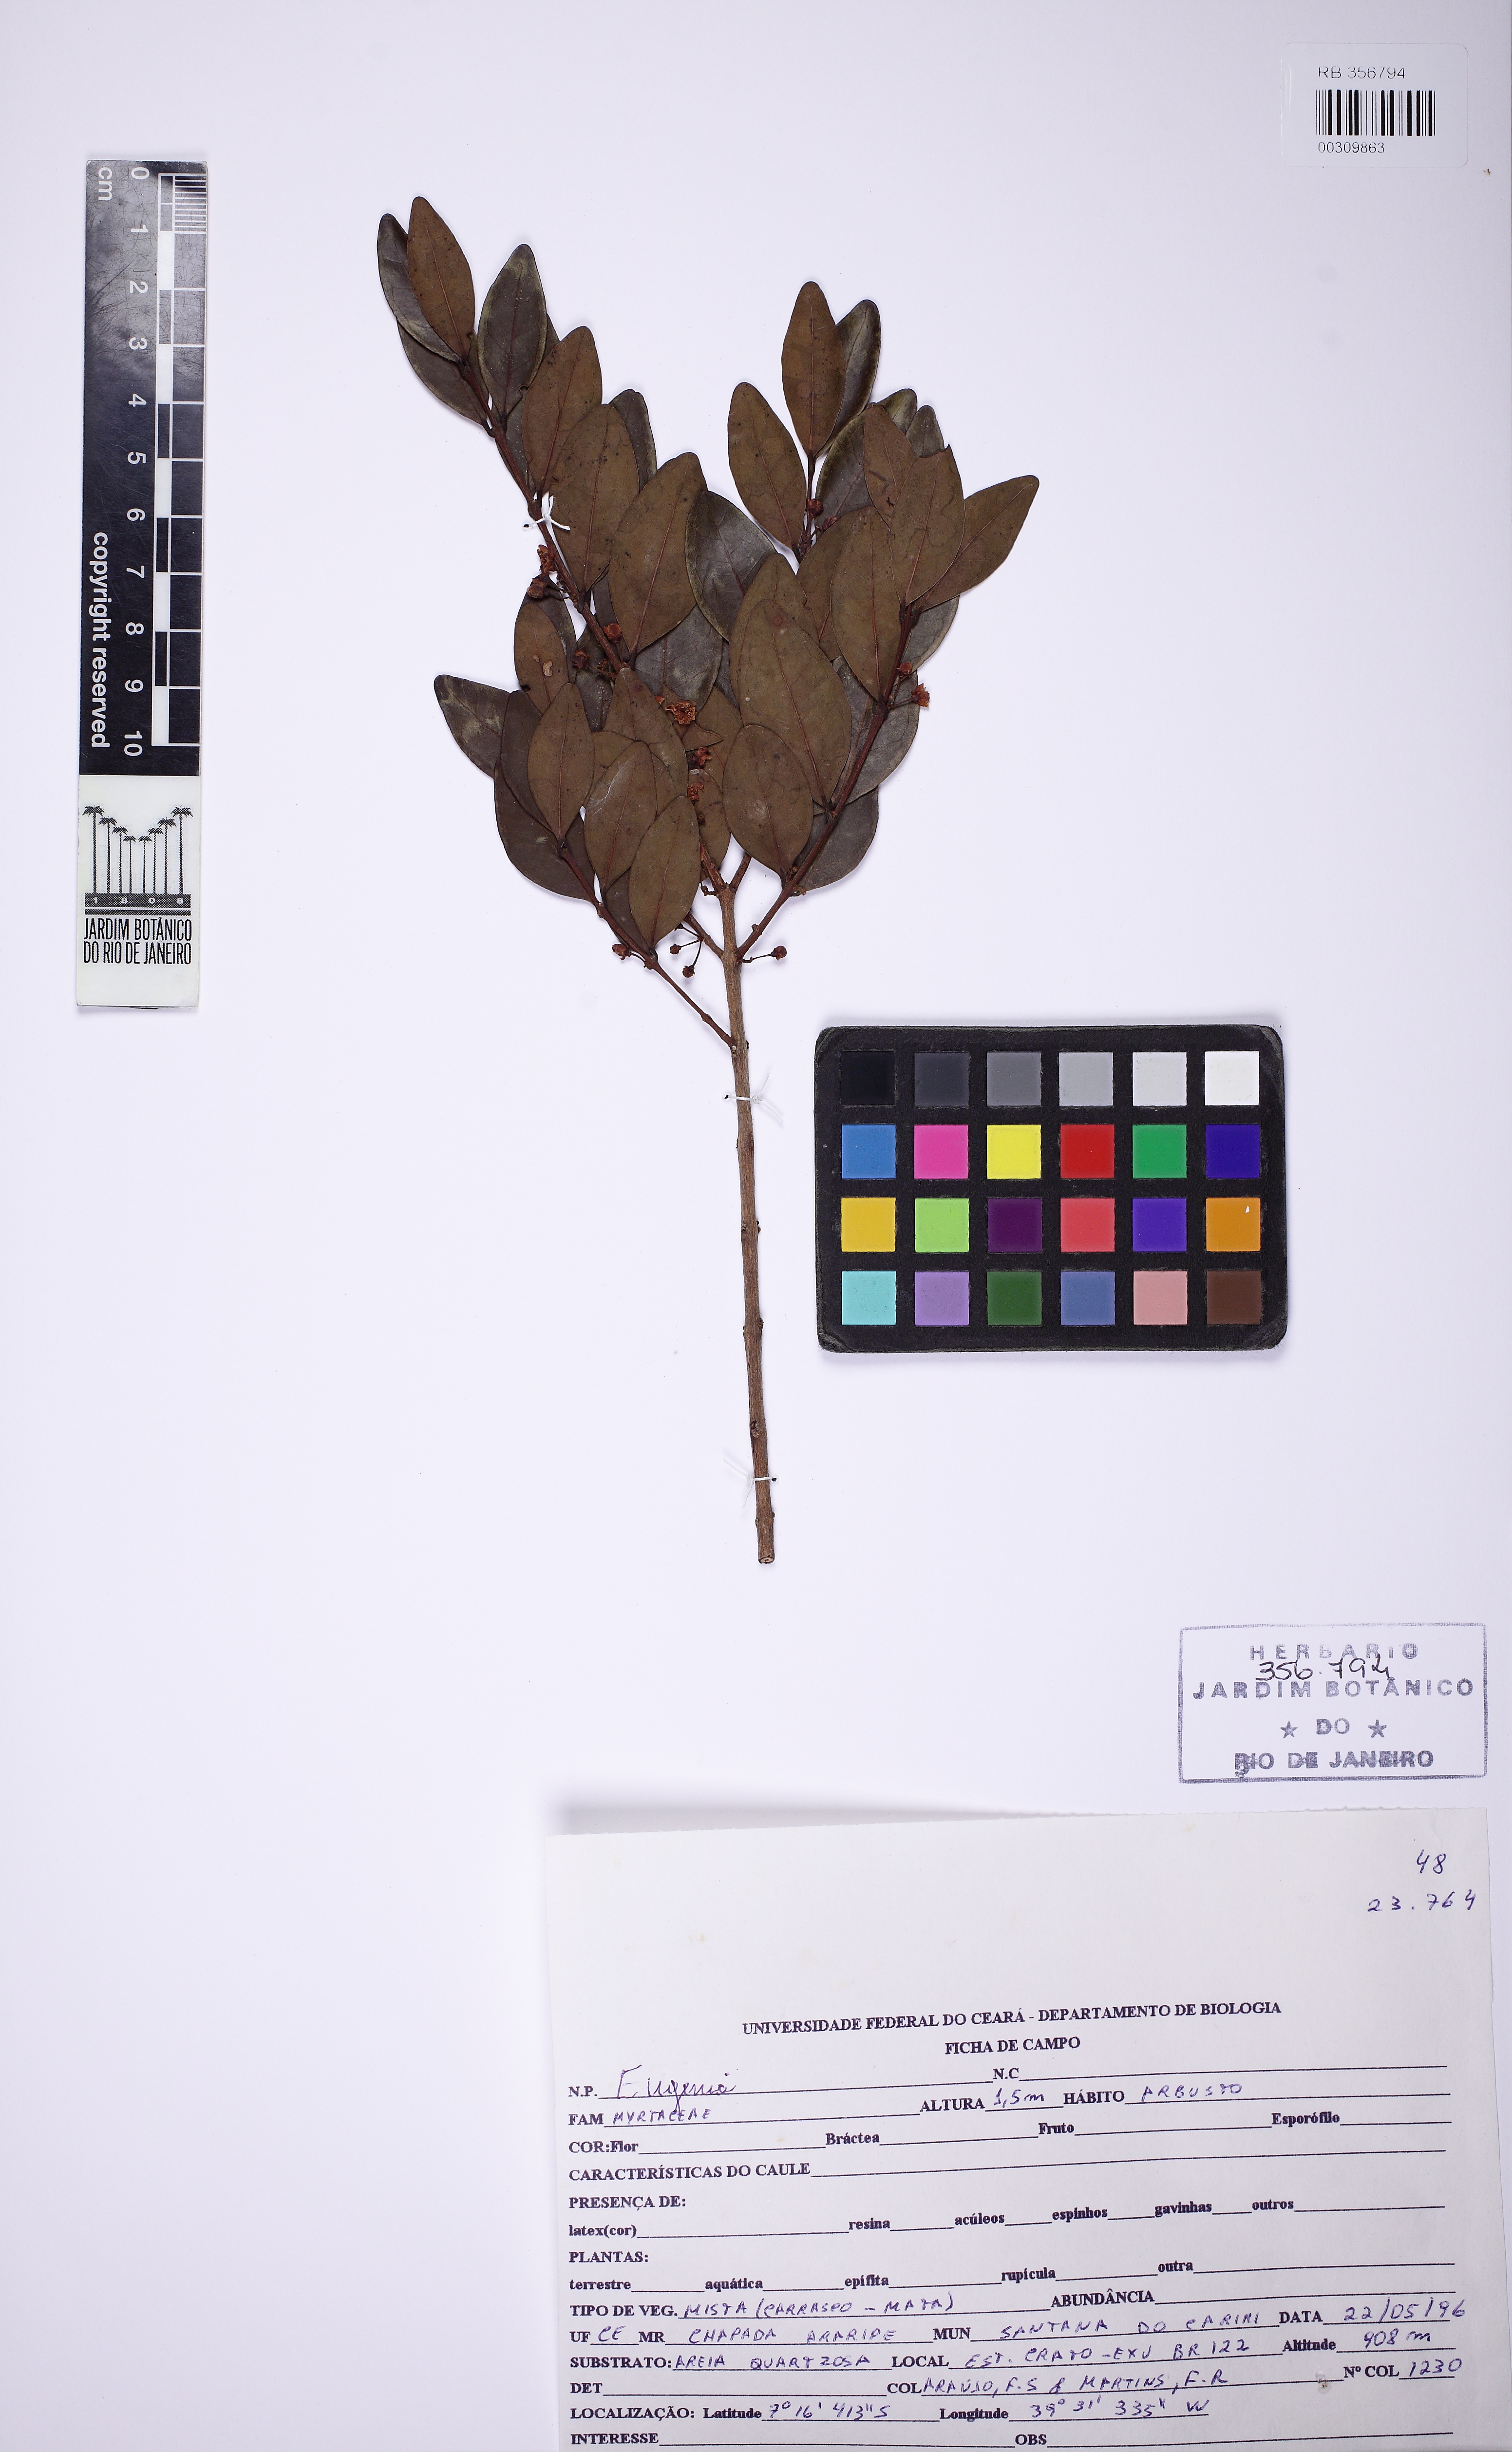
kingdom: Plantae
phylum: Tracheophyta
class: Magnoliopsida
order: Myrtales
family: Myrtaceae
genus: Eugenia
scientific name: Eugenia sonderiana
